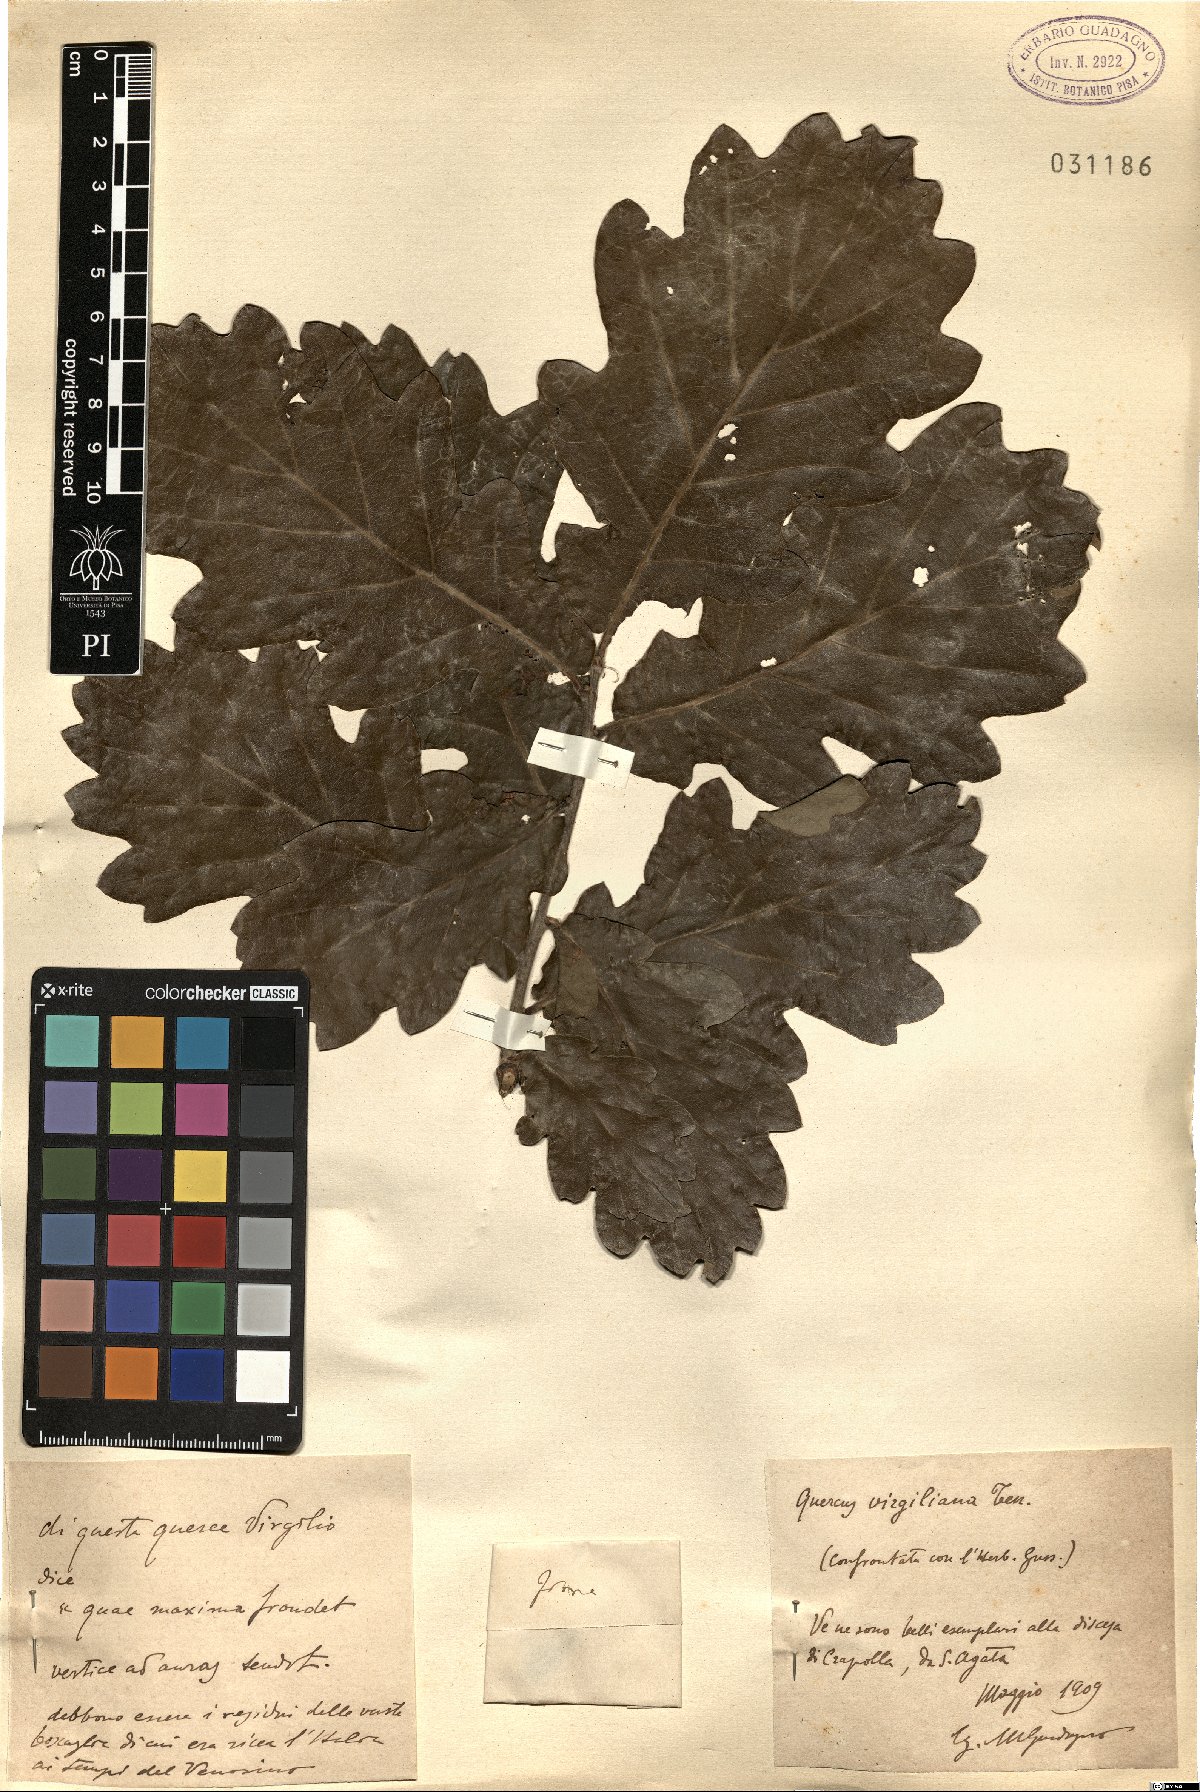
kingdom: Plantae
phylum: Tracheophyta
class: Magnoliopsida
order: Fagales
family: Fagaceae
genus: Quercus
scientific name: Quercus pubescens
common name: Downy oak
